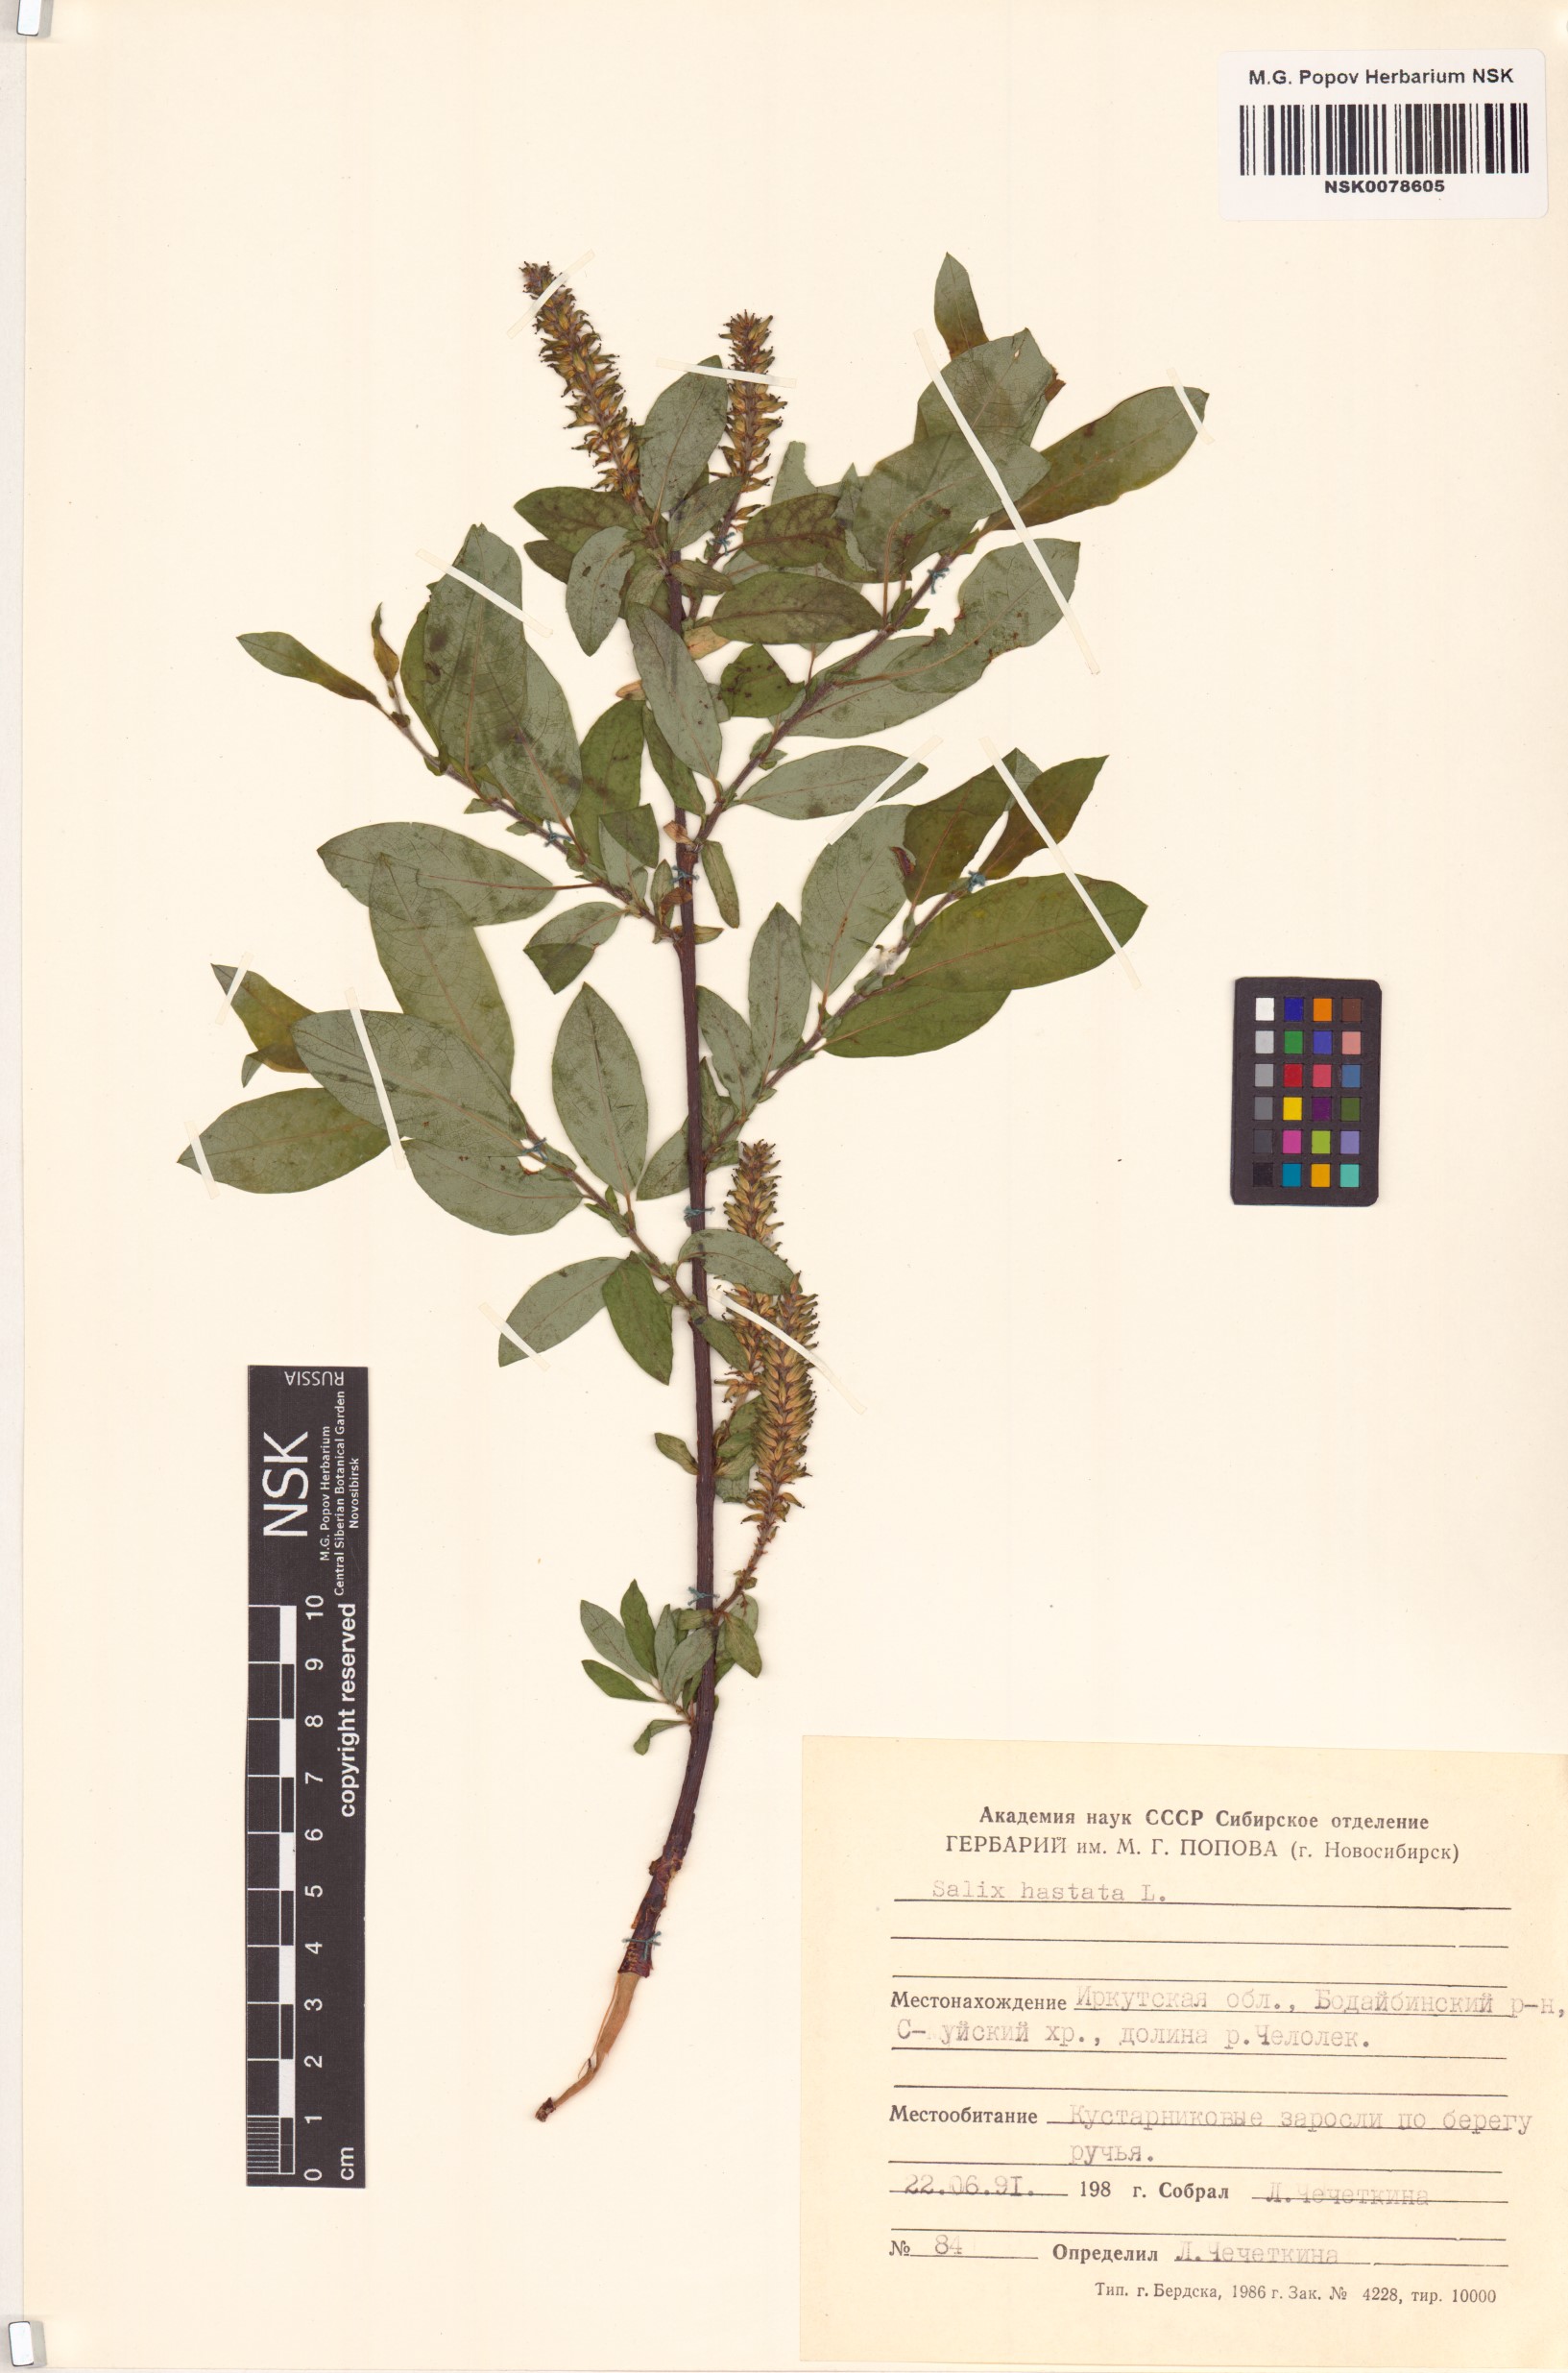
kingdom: Plantae
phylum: Tracheophyta
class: Magnoliopsida
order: Malpighiales
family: Salicaceae
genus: Salix
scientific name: Salix hastata
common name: Halberd willow
